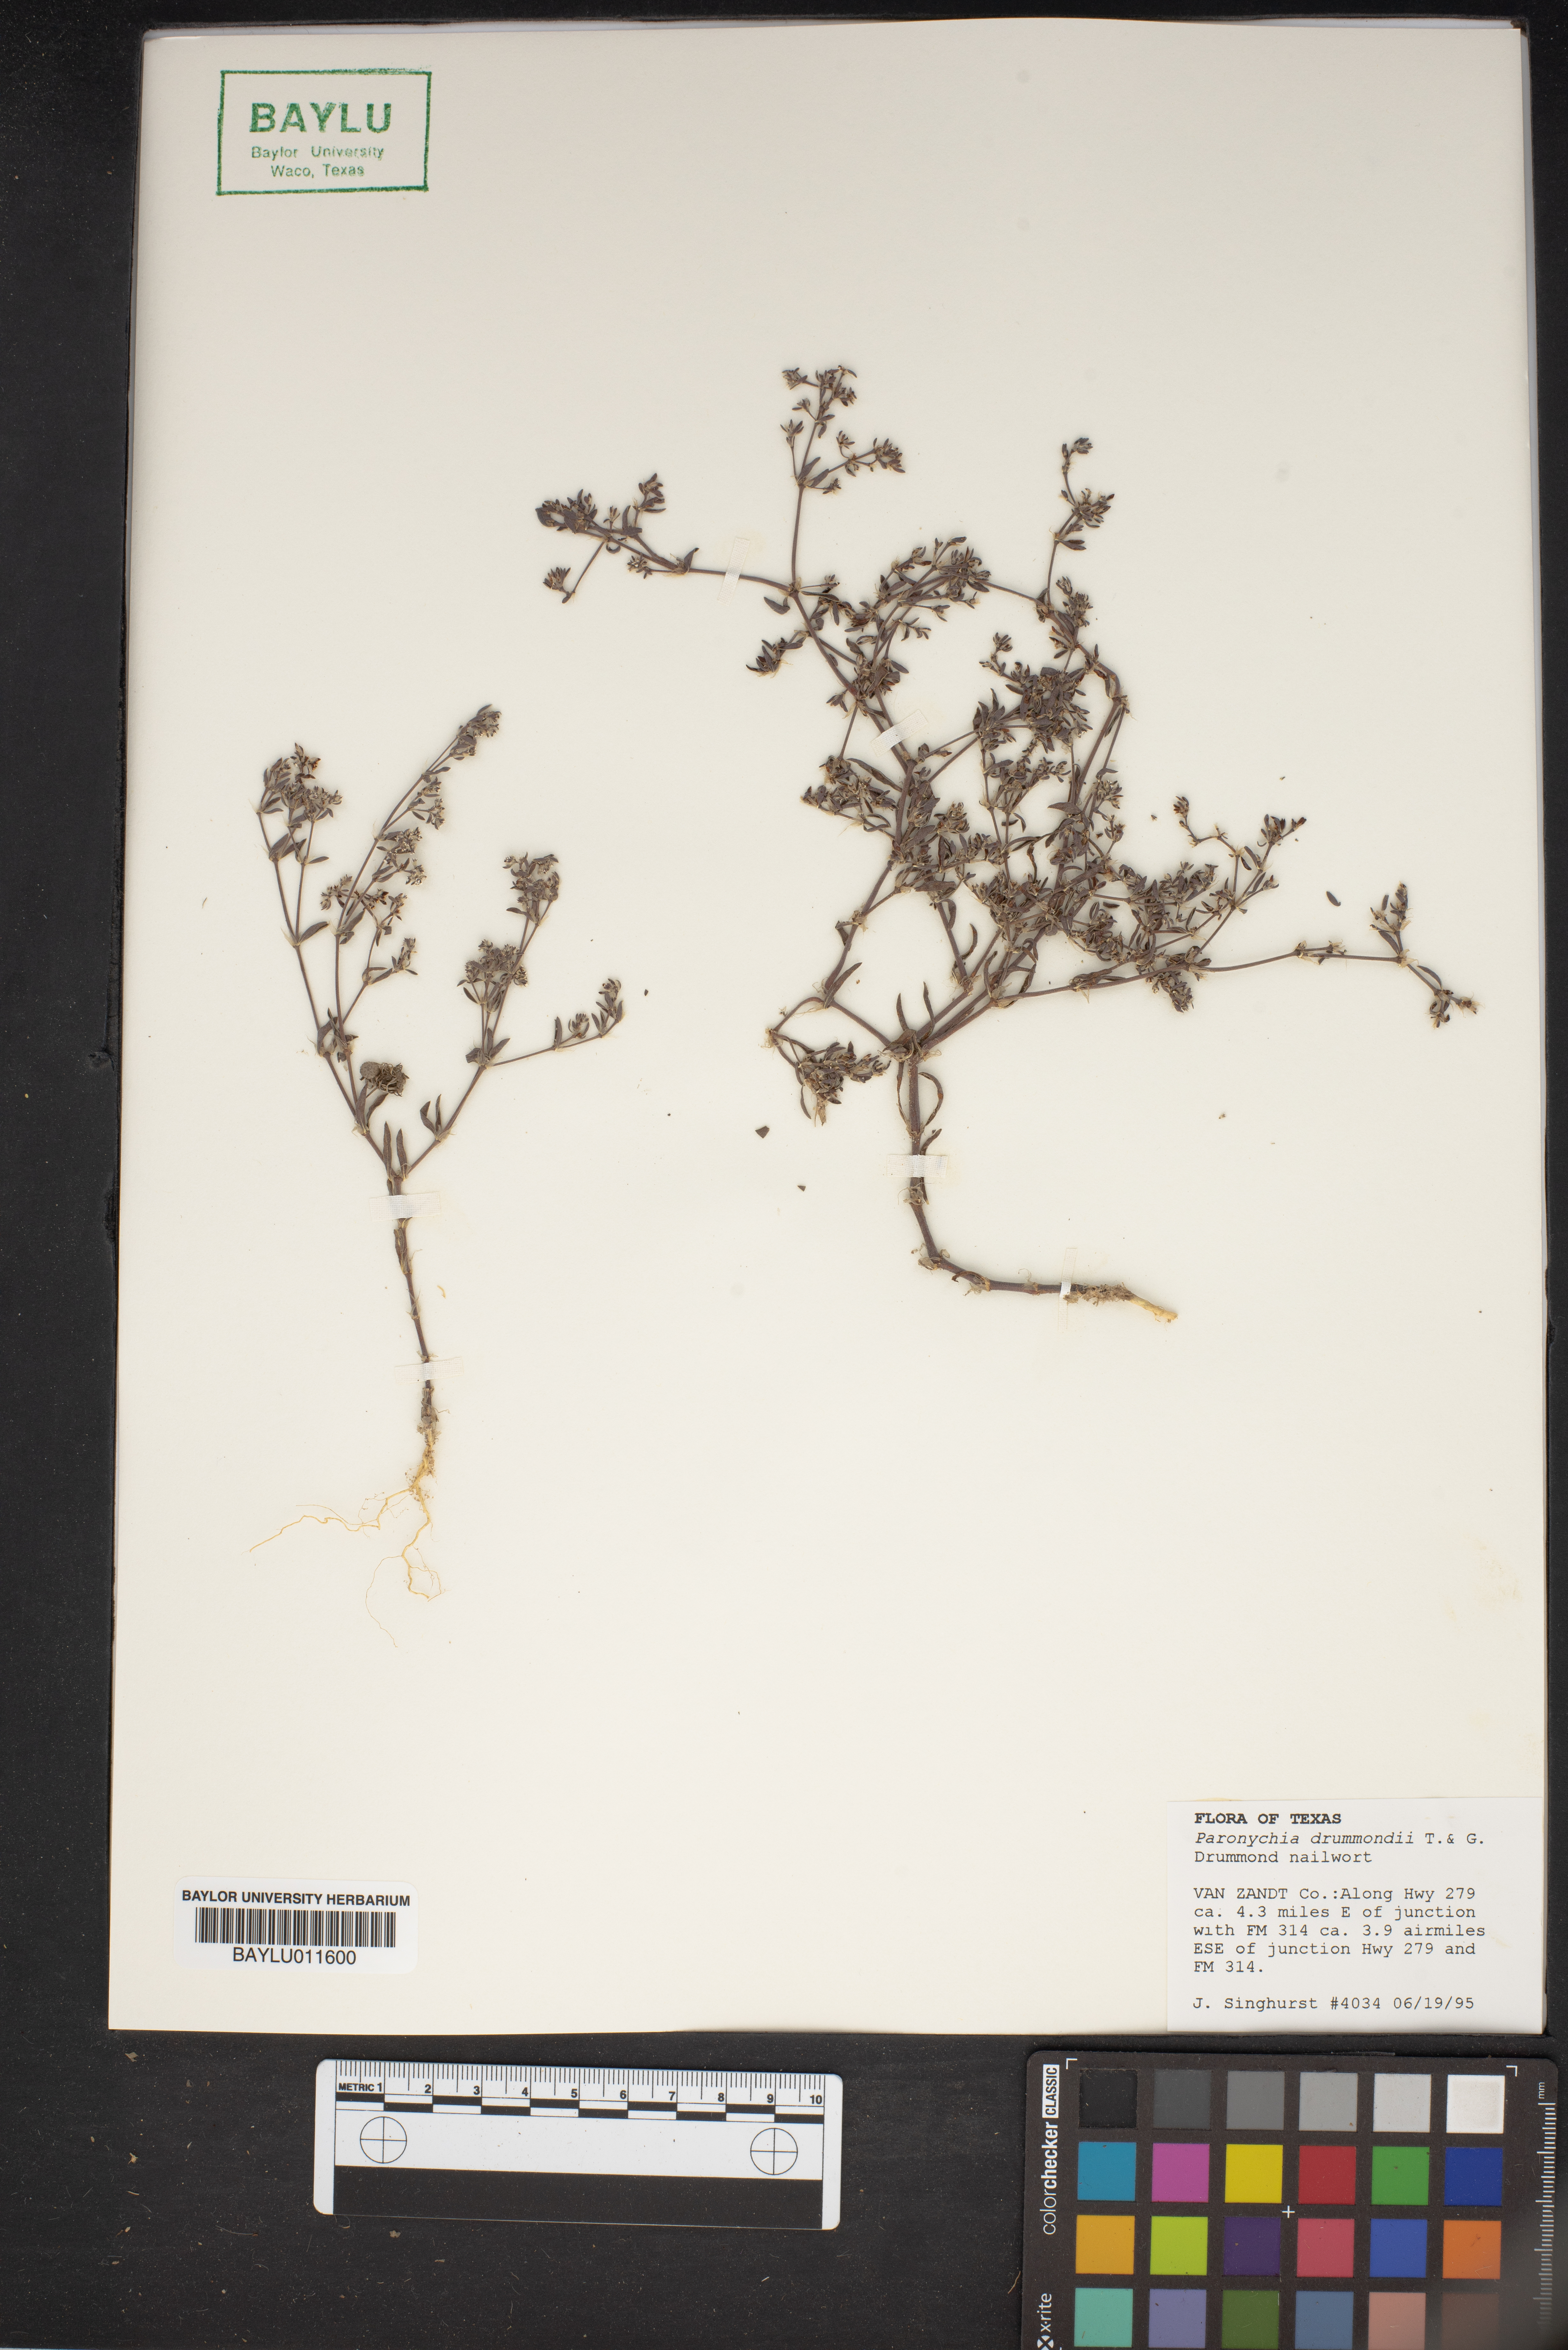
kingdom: Plantae
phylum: Tracheophyta
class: Magnoliopsida
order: Caryophyllales
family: Caryophyllaceae
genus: Paronychia
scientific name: Paronychia drummondii
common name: Drummond's nailwort
